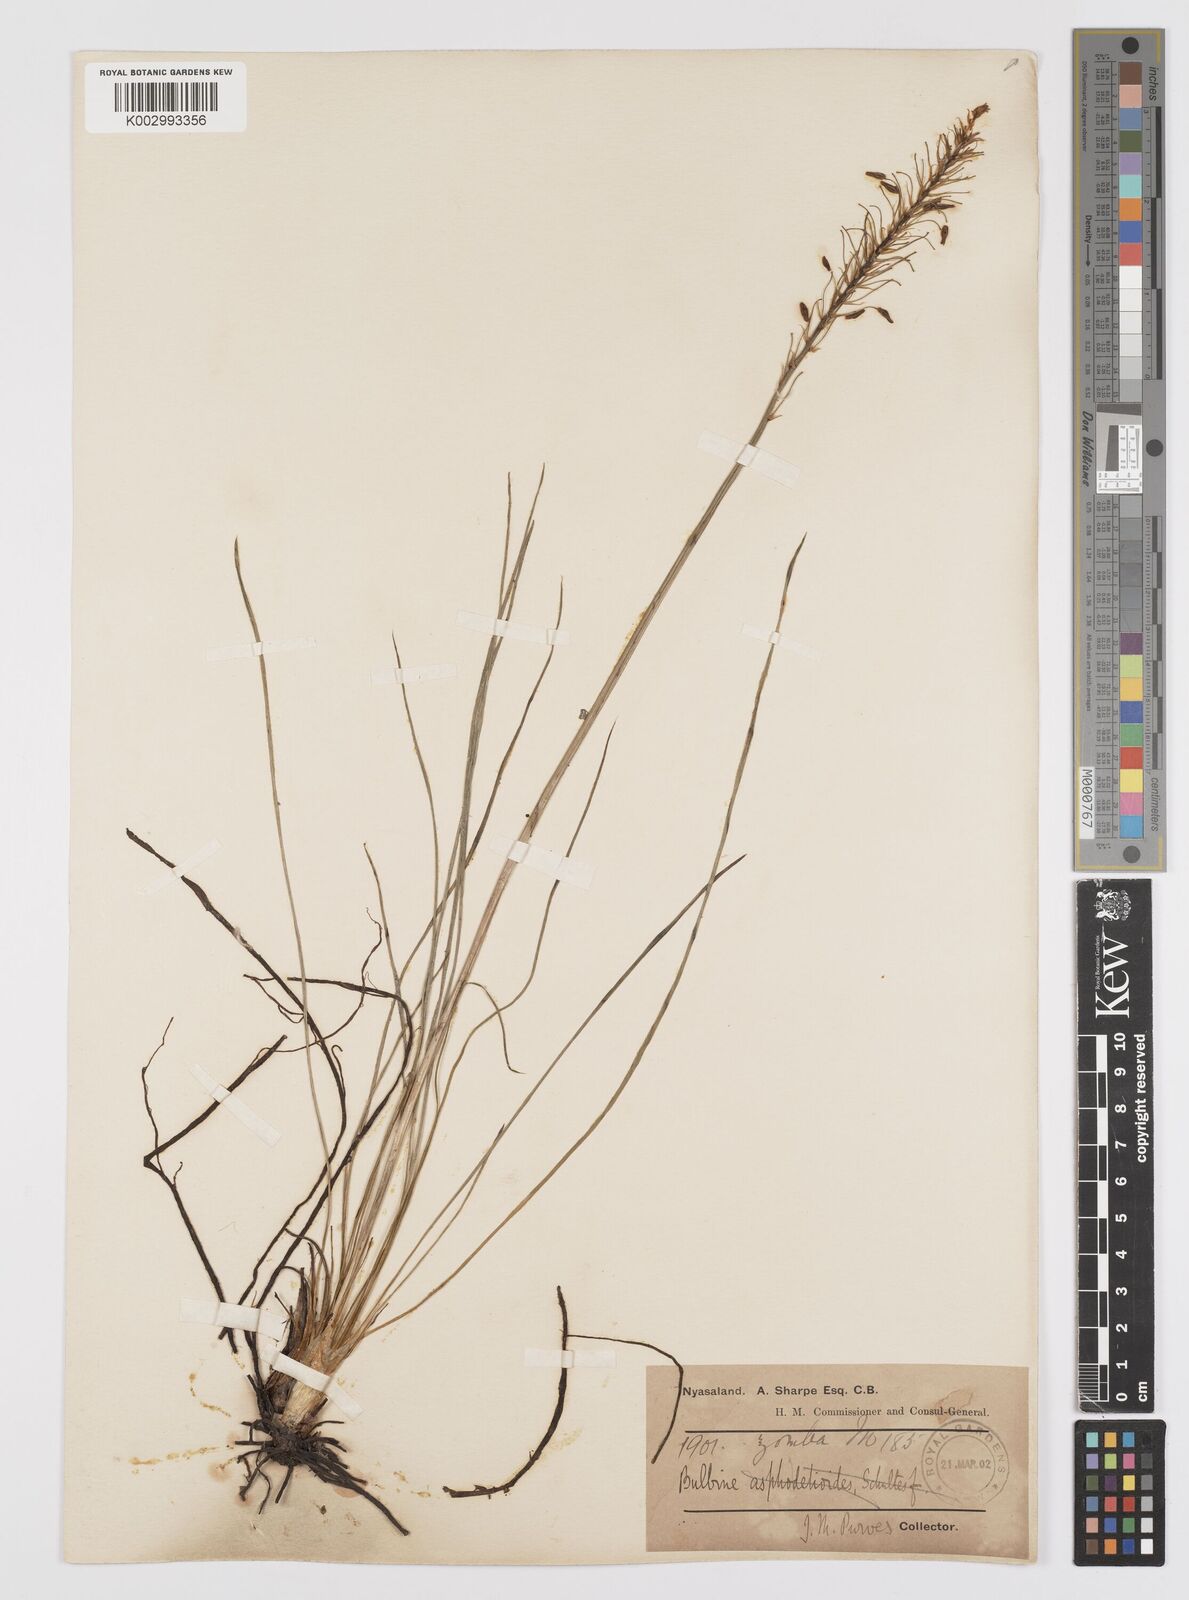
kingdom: Plantae
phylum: Tracheophyta
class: Liliopsida
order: Asparagales
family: Asphodelaceae
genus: Bulbine
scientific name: Bulbine abyssinica
